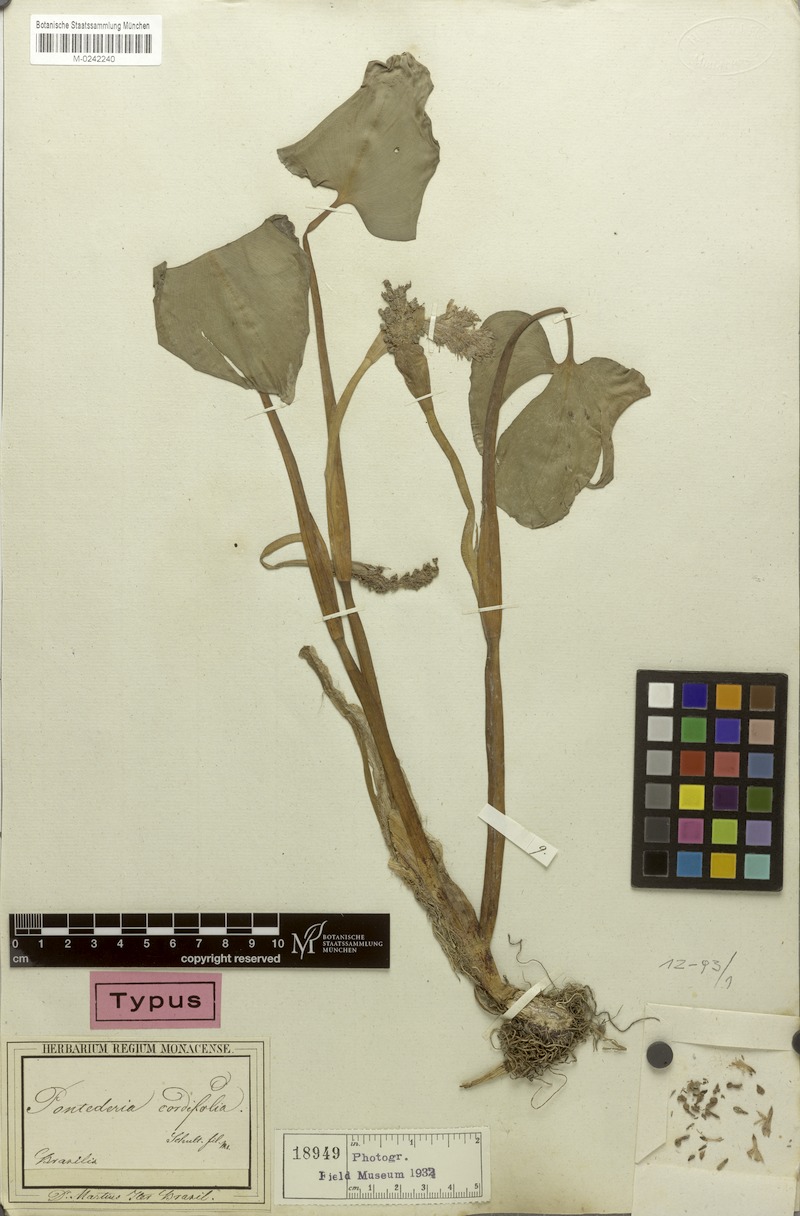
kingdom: Plantae
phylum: Tracheophyta
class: Liliopsida
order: Commelinales
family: Pontederiaceae
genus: Pontederia
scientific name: Pontederia rotundifolia
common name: Tropical pickerel-weed
